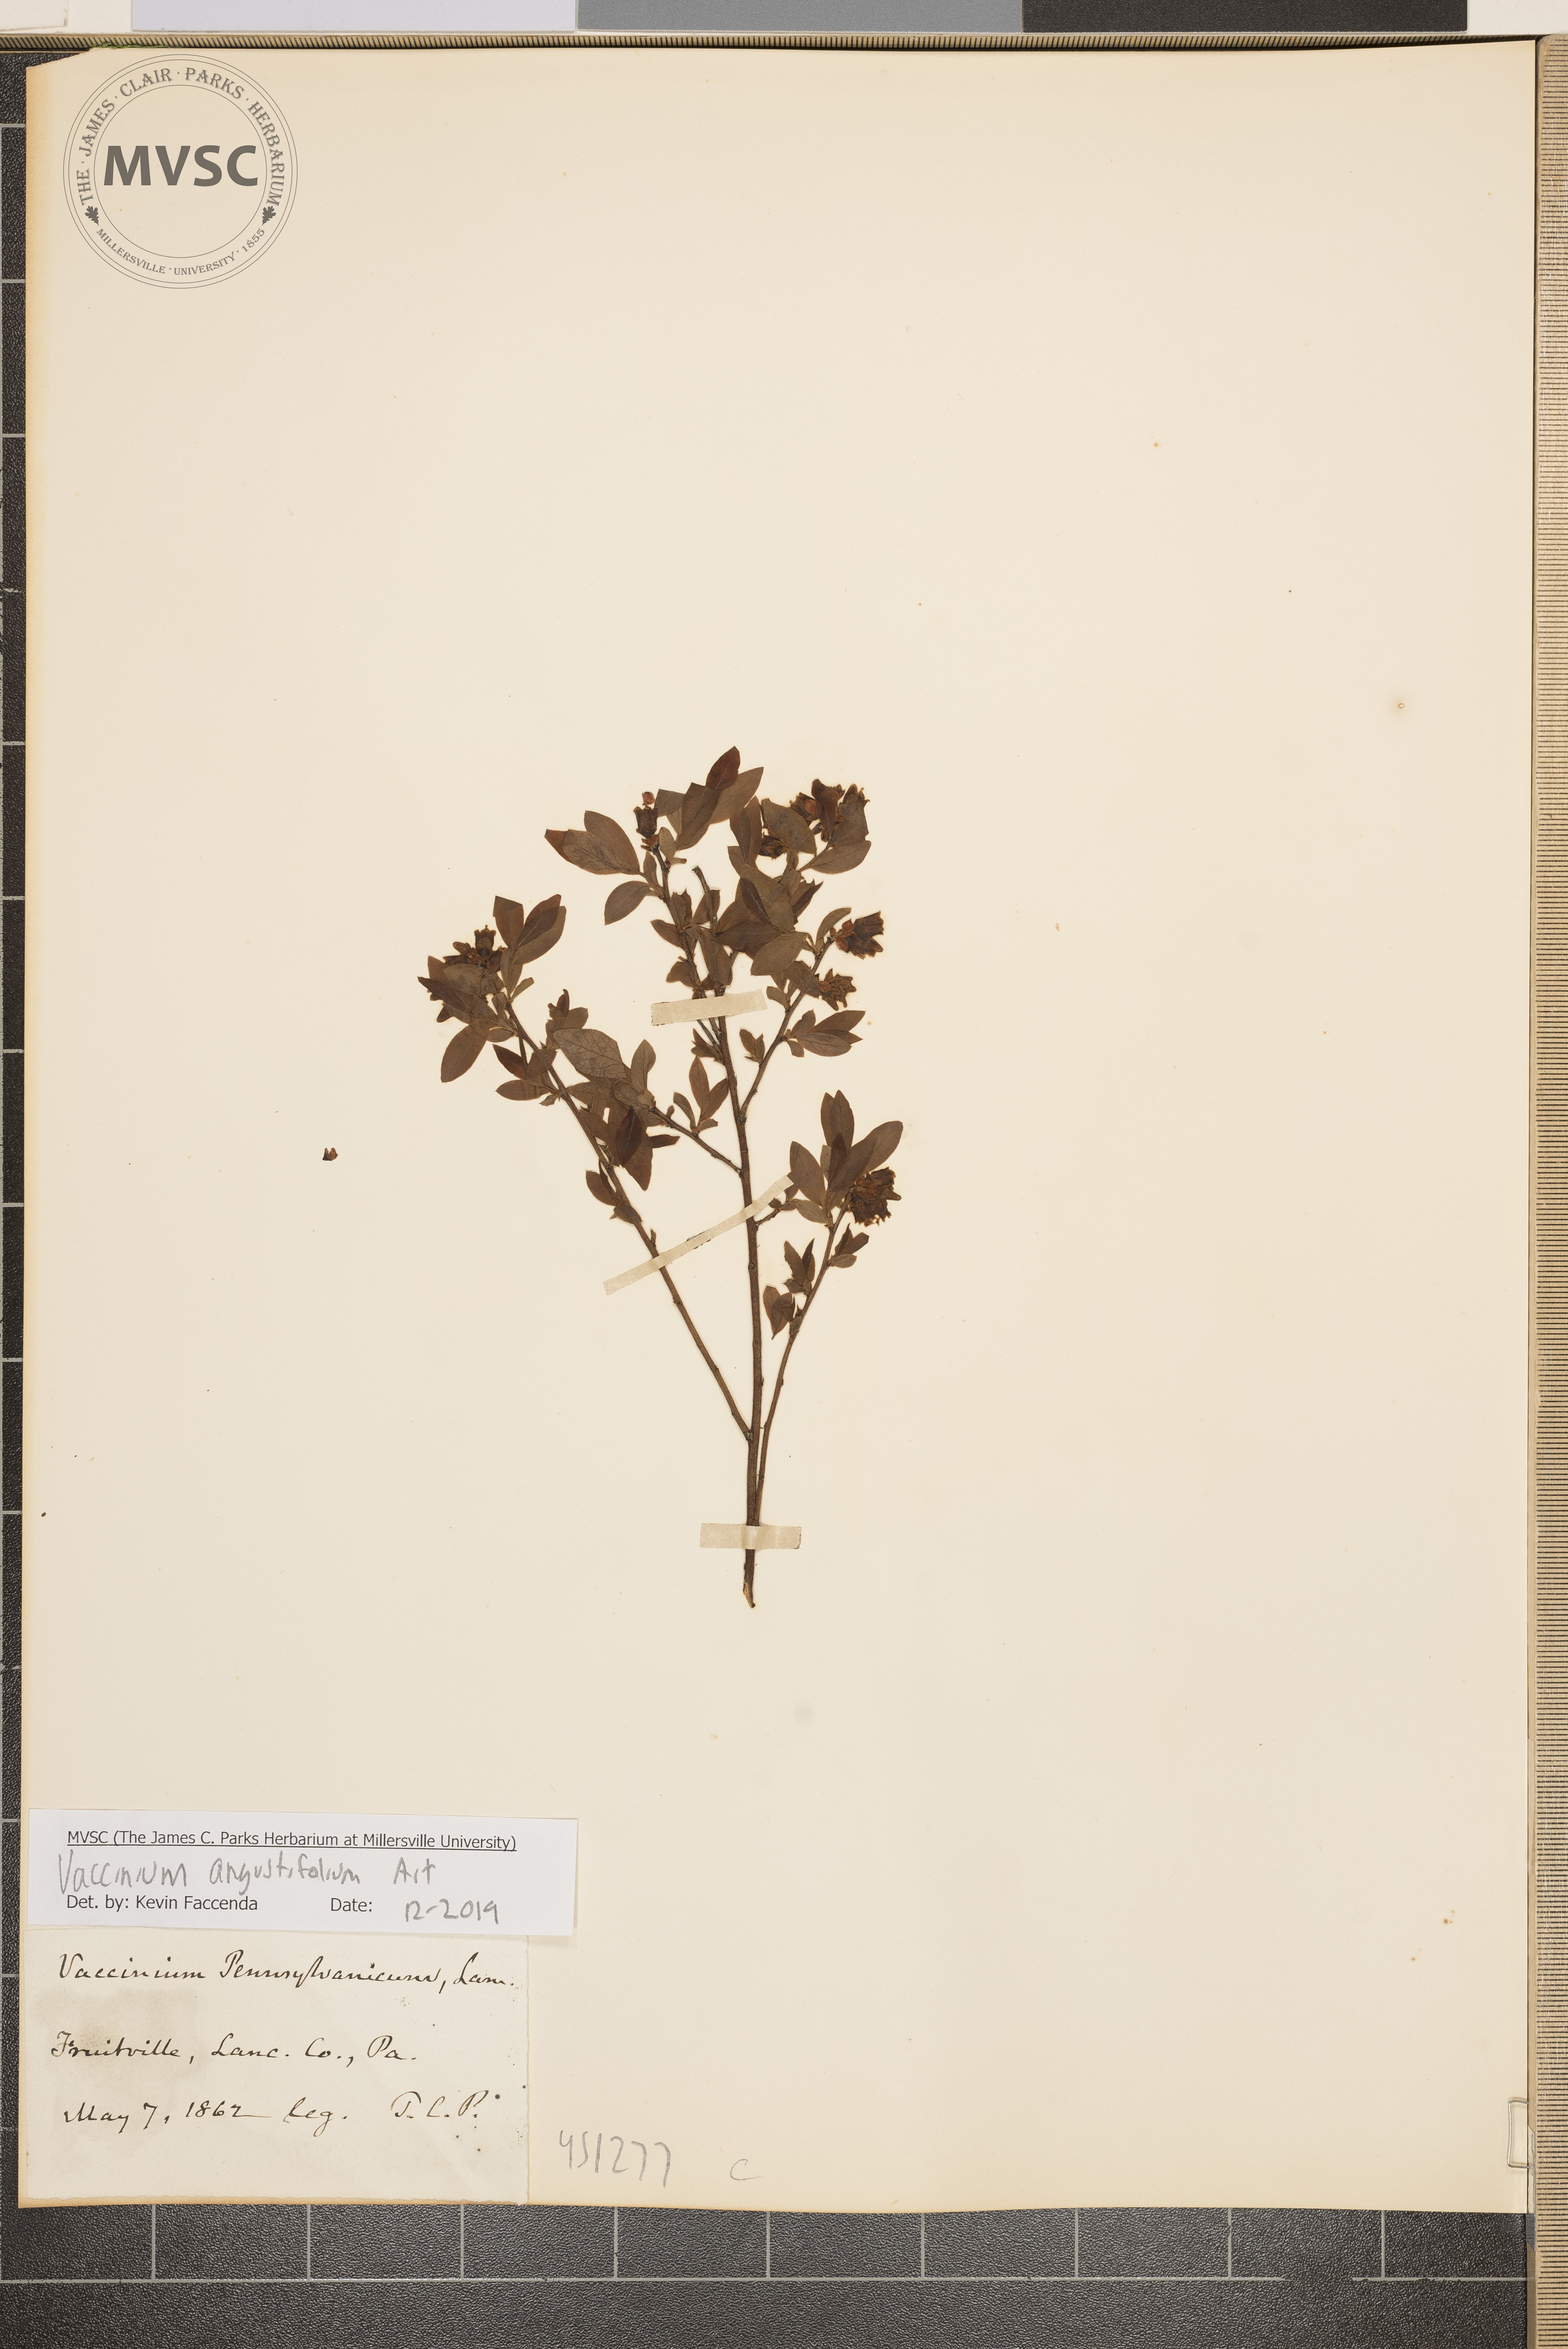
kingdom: Plantae
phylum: Tracheophyta
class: Magnoliopsida
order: Ericales
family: Ericaceae
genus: Vaccinium
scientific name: Vaccinium angustifolium
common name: Early lowbush blueberry
